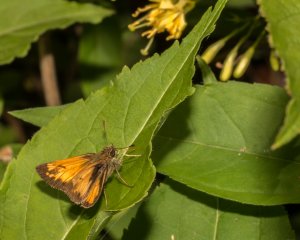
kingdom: Animalia
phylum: Arthropoda
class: Insecta
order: Lepidoptera
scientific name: Lepidoptera
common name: Butterflies
